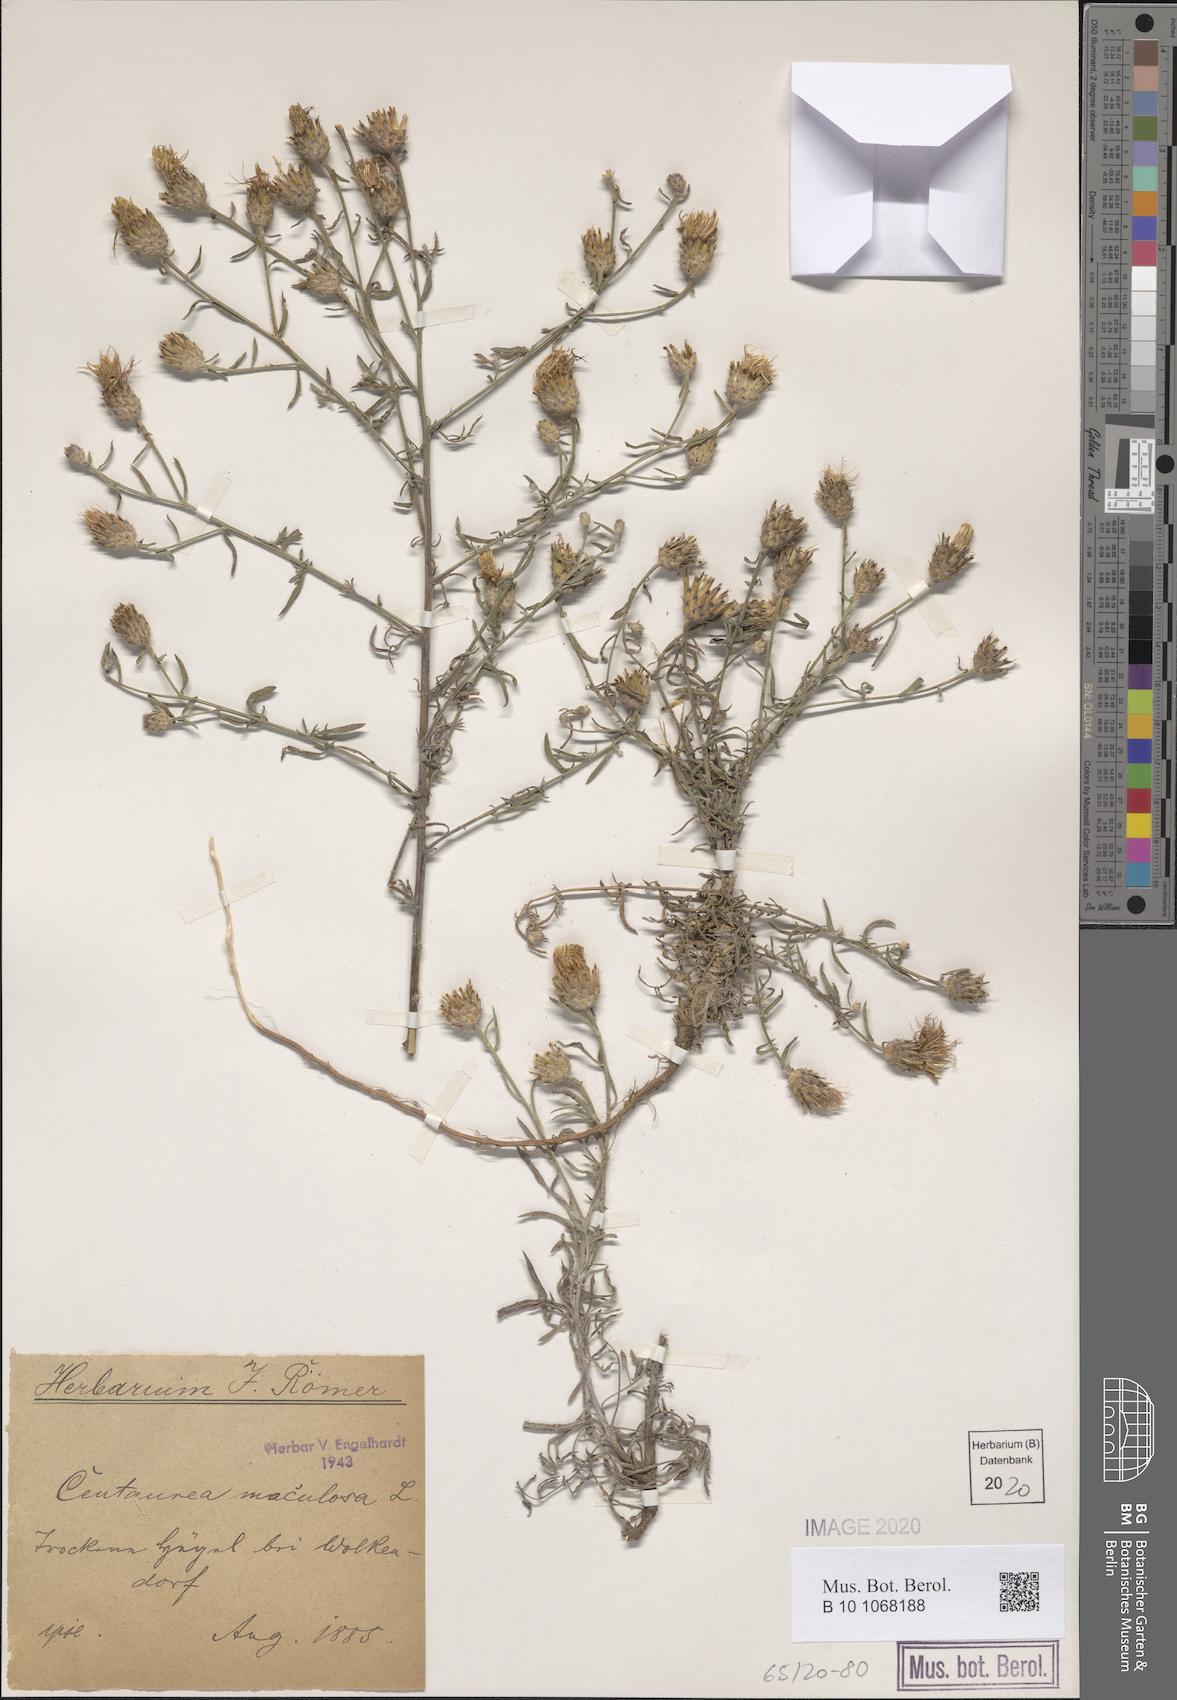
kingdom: Plantae
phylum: Tracheophyta
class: Magnoliopsida
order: Asterales
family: Asteraceae
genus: Centaurea
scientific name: Centaurea stoebe
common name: Spotted knapweed
